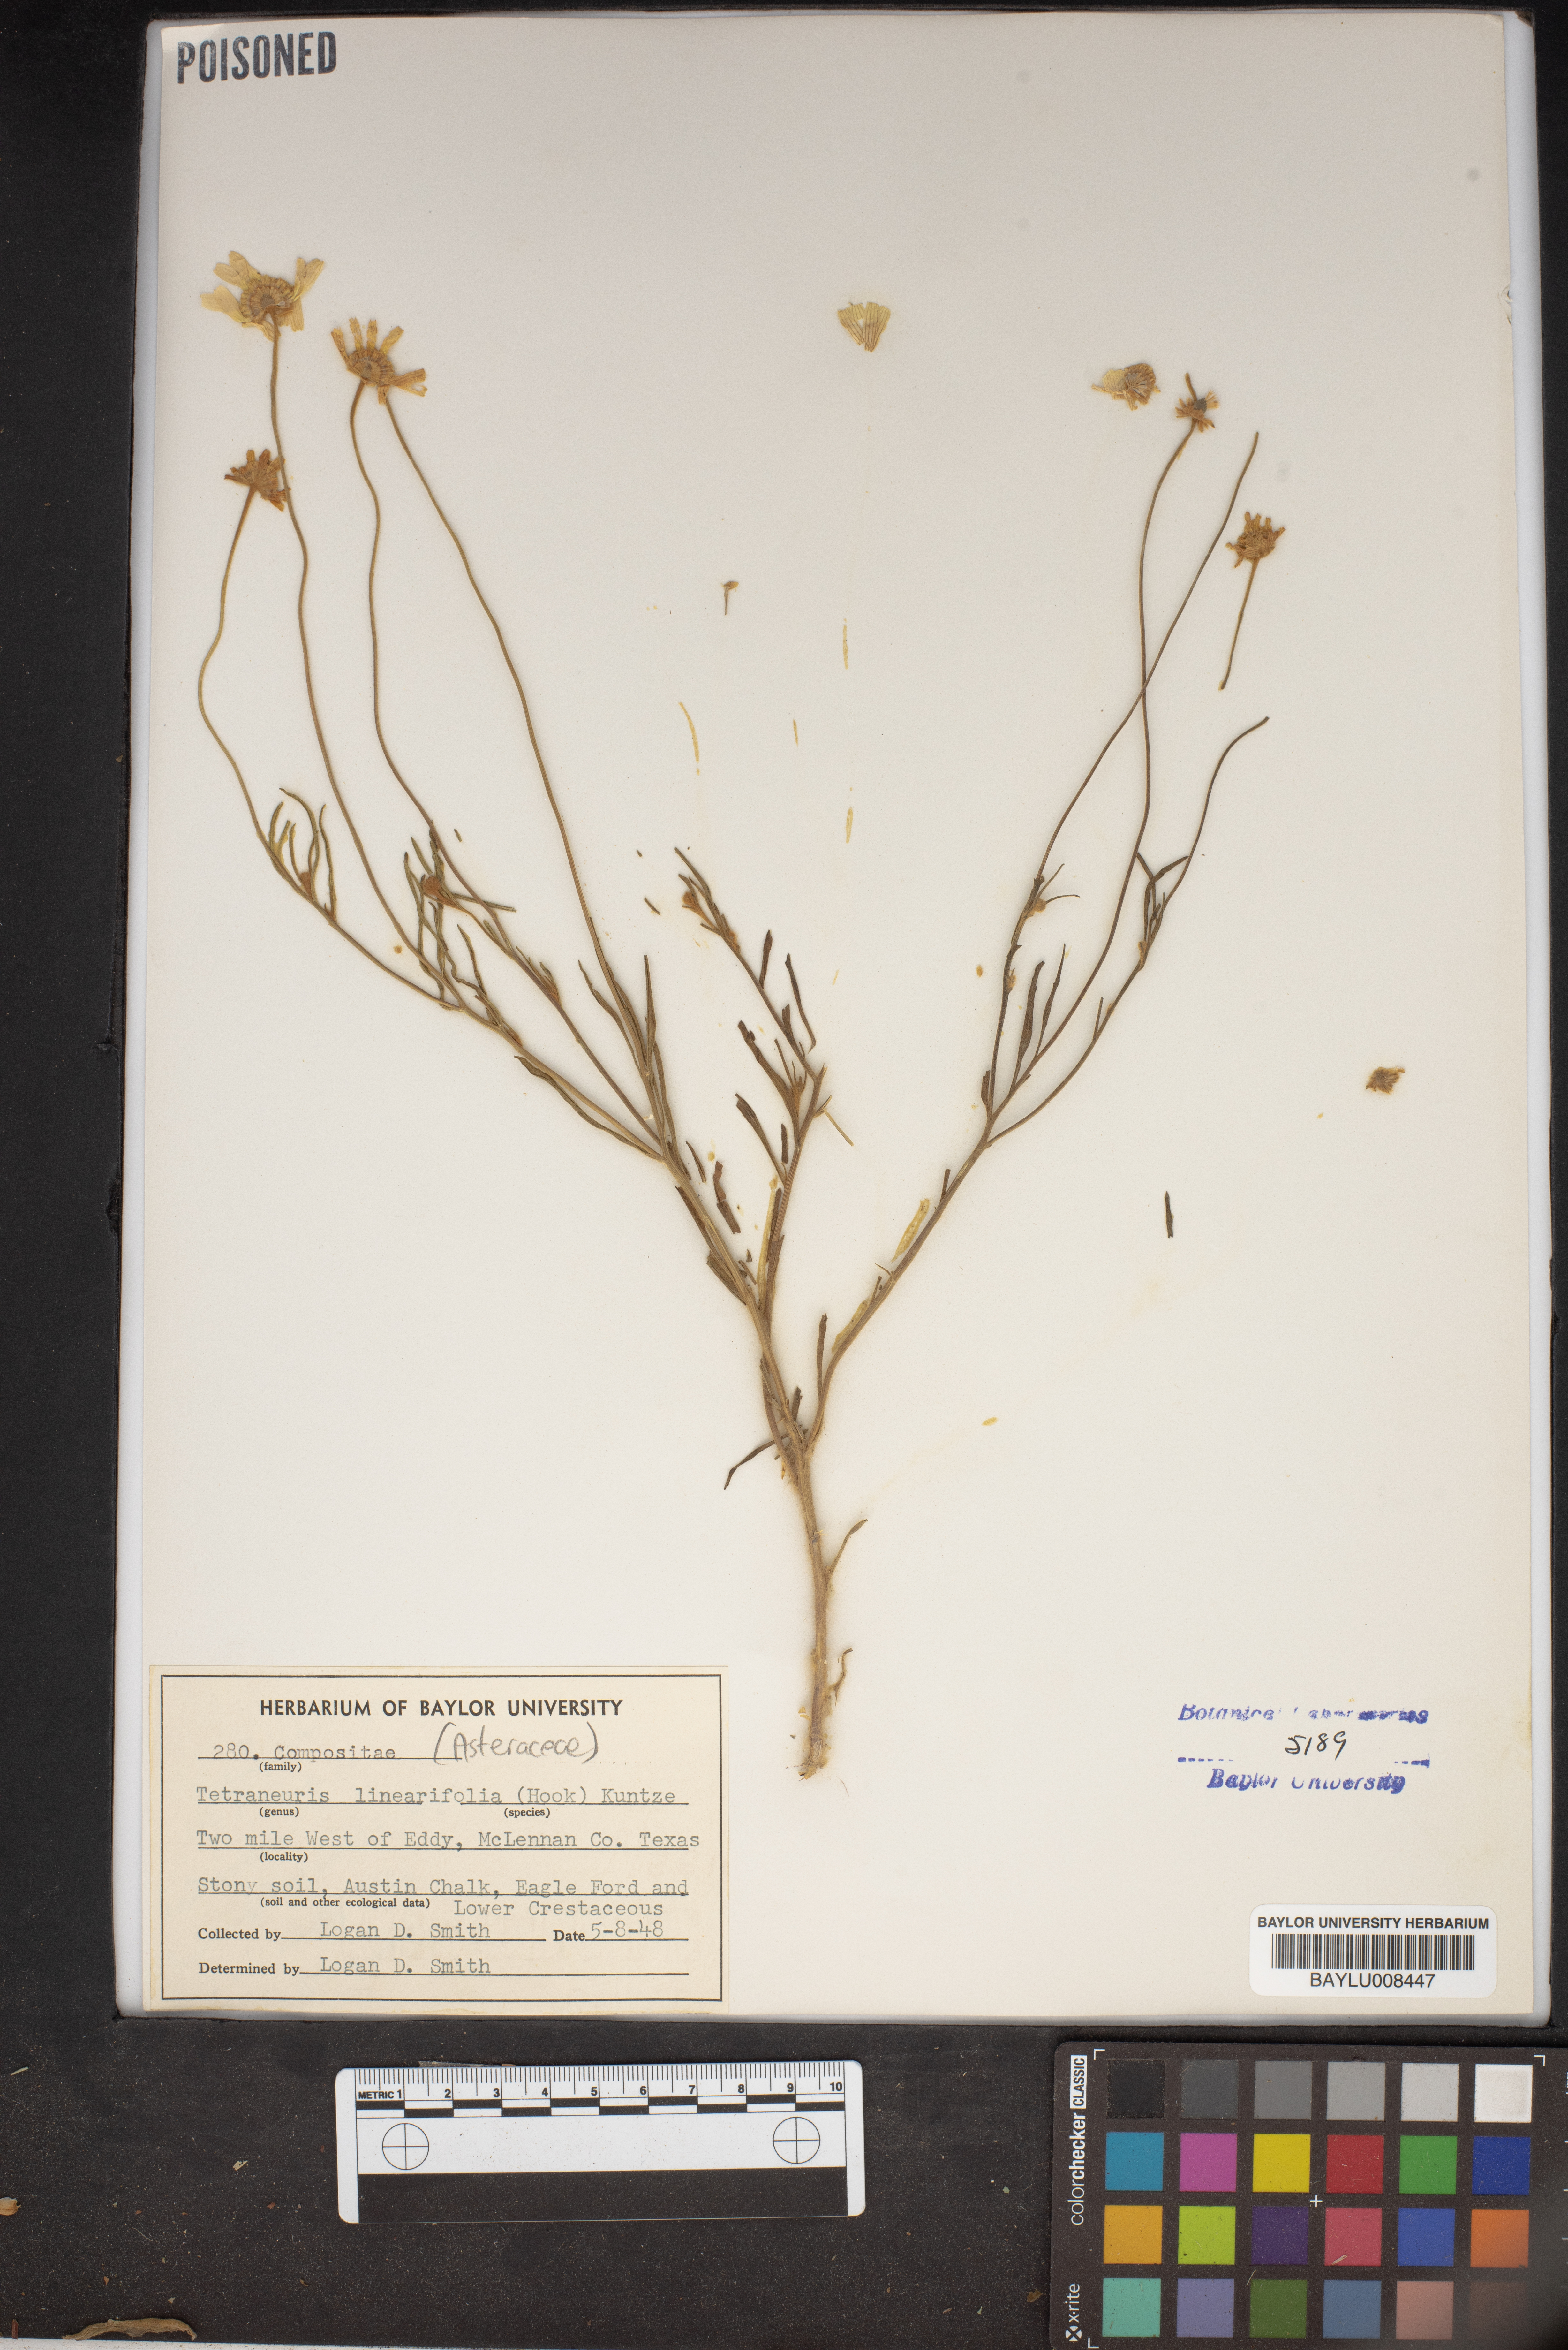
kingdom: Plantae
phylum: Tracheophyta
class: Magnoliopsida
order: Asterales
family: Asteraceae
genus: Tetraneuris
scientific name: Tetraneuris linearifolia
